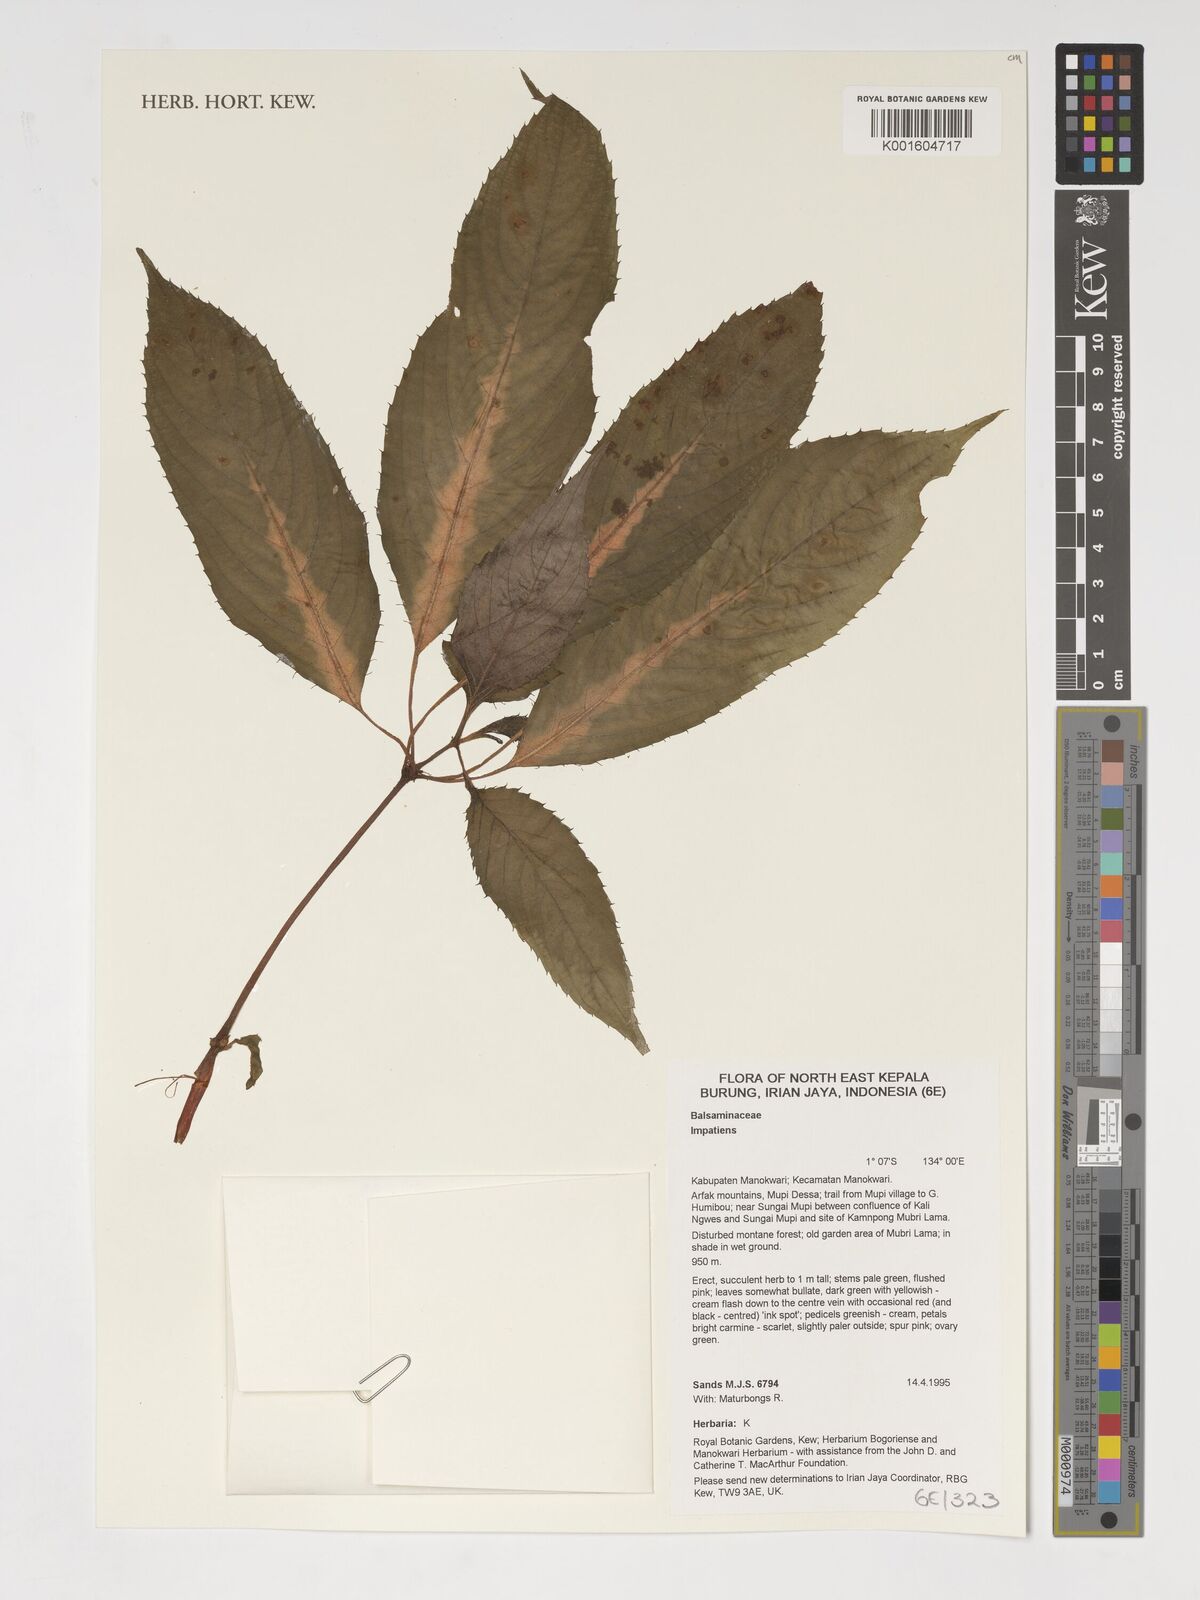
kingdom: Plantae
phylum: Tracheophyta
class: Magnoliopsida
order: Ericales
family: Balsaminaceae
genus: Impatiens
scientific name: Impatiens
